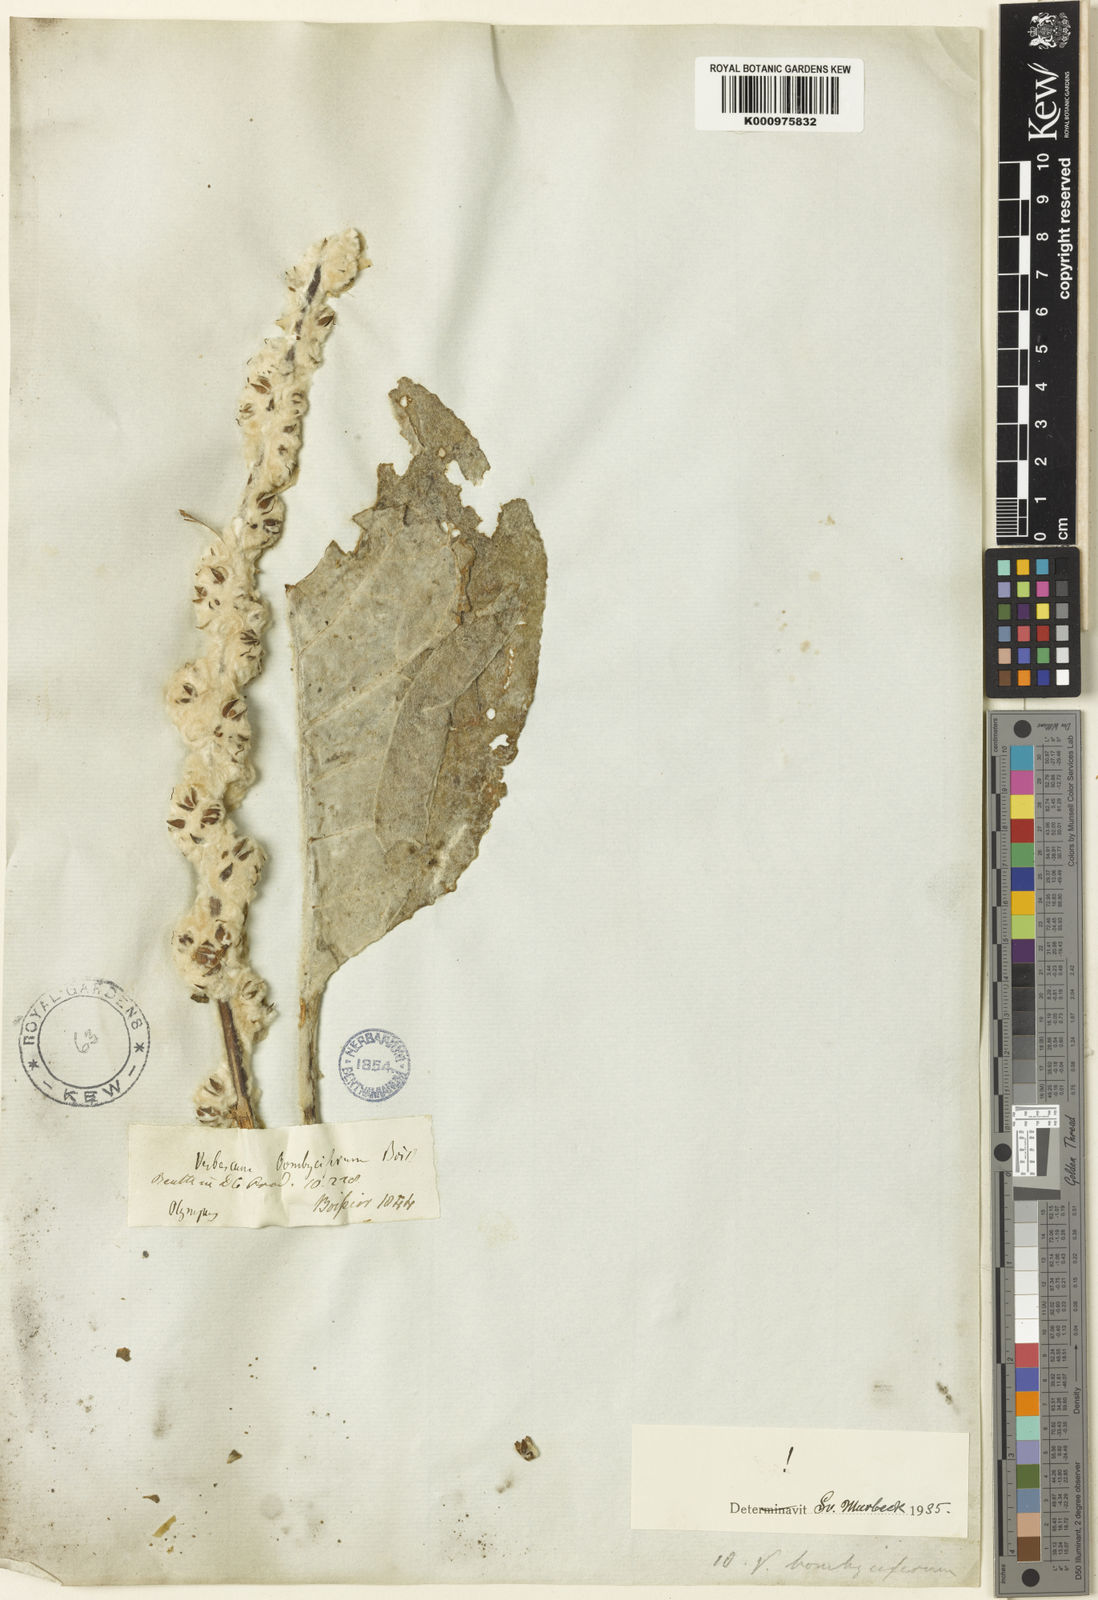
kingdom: Plantae
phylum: Tracheophyta
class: Magnoliopsida
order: Lamiales
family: Scrophulariaceae
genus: Verbascum
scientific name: Verbascum bombyciferum
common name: Broussa mullein
